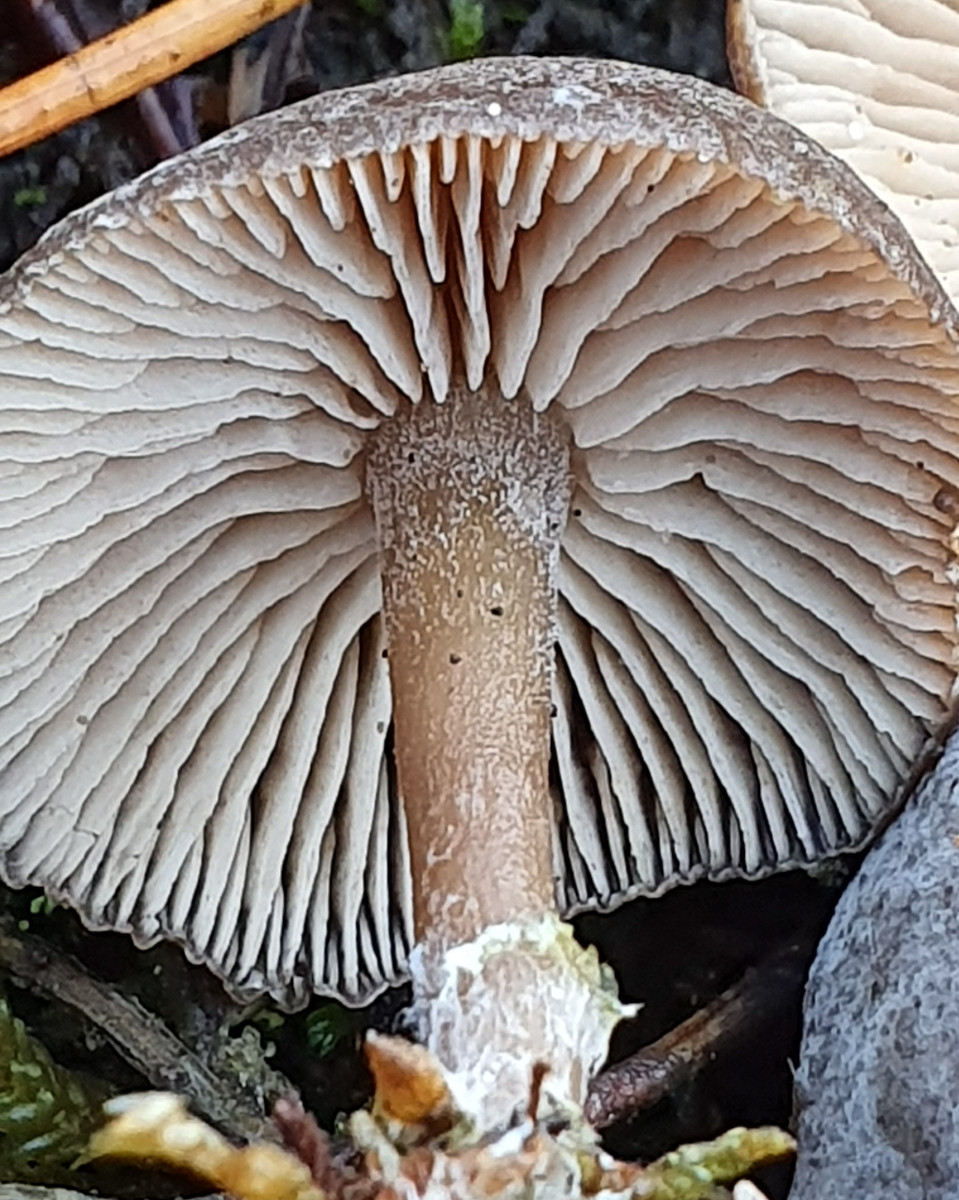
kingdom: Fungi
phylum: Basidiomycota
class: Agaricomycetes
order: Agaricales
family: Entolomataceae
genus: Clitopilopsis
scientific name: Clitopilopsis hirneola
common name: grå troldhat
